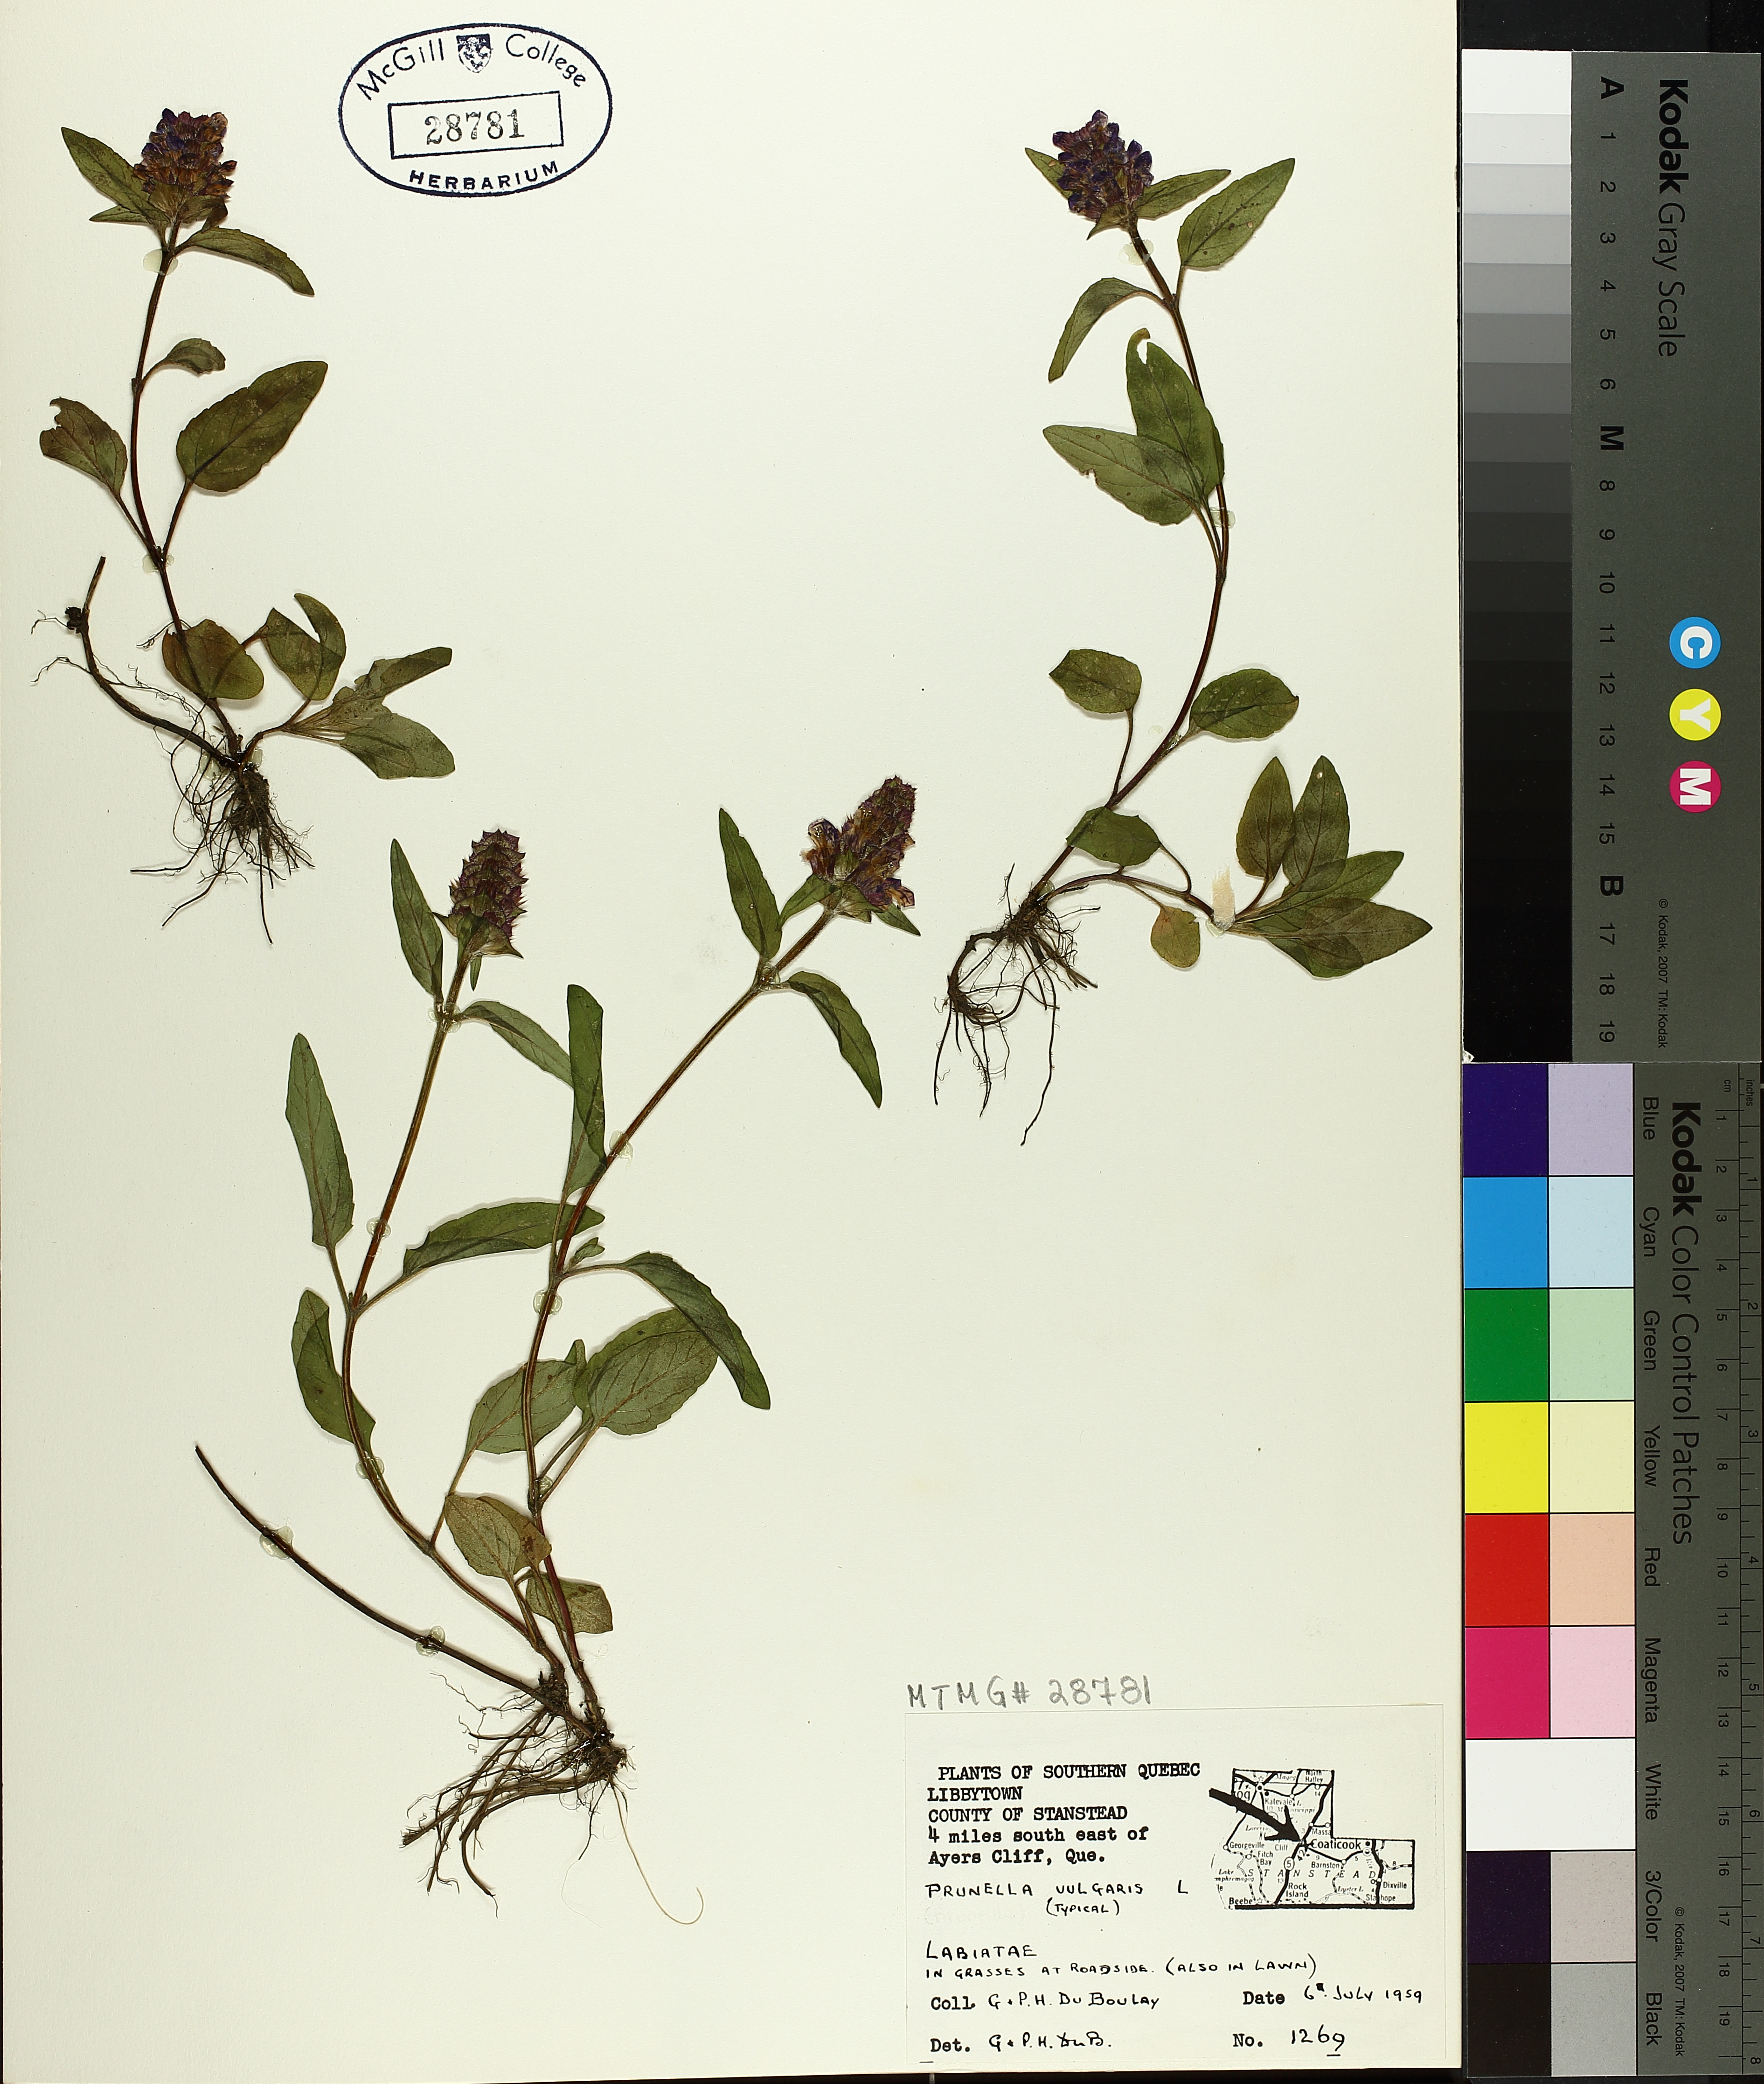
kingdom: Plantae
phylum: Tracheophyta
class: Magnoliopsida
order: Lamiales
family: Lamiaceae
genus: Prunella
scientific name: Prunella vulgaris
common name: Heal-all
